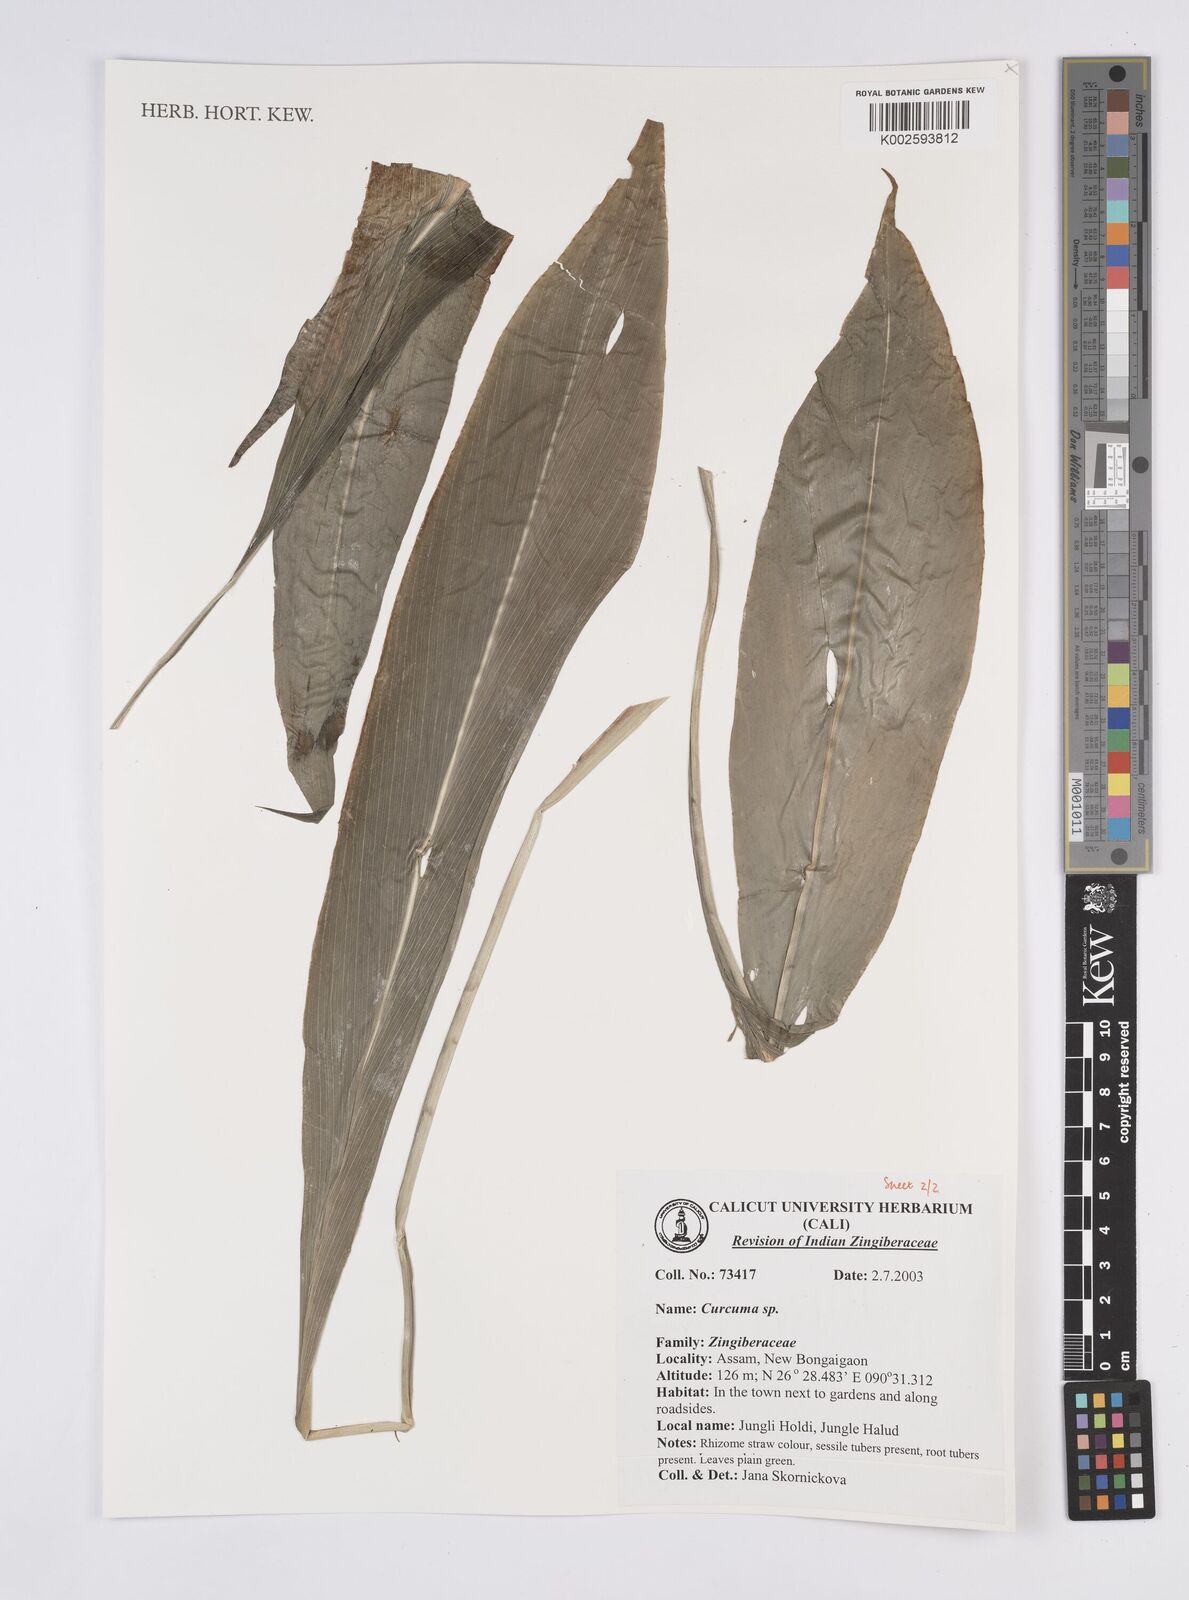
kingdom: Plantae
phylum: Tracheophyta
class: Liliopsida
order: Zingiberales
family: Zingiberaceae
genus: Curcuma
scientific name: Curcuma
